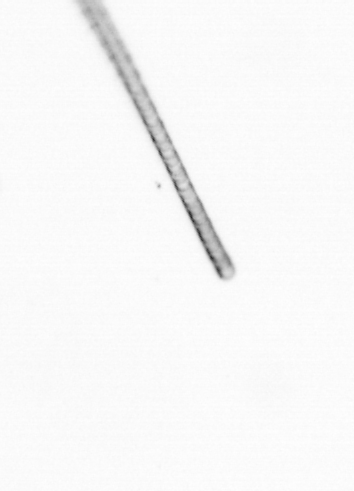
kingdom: Chromista
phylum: Ochrophyta
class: Bacillariophyceae
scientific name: Bacillariophyceae
